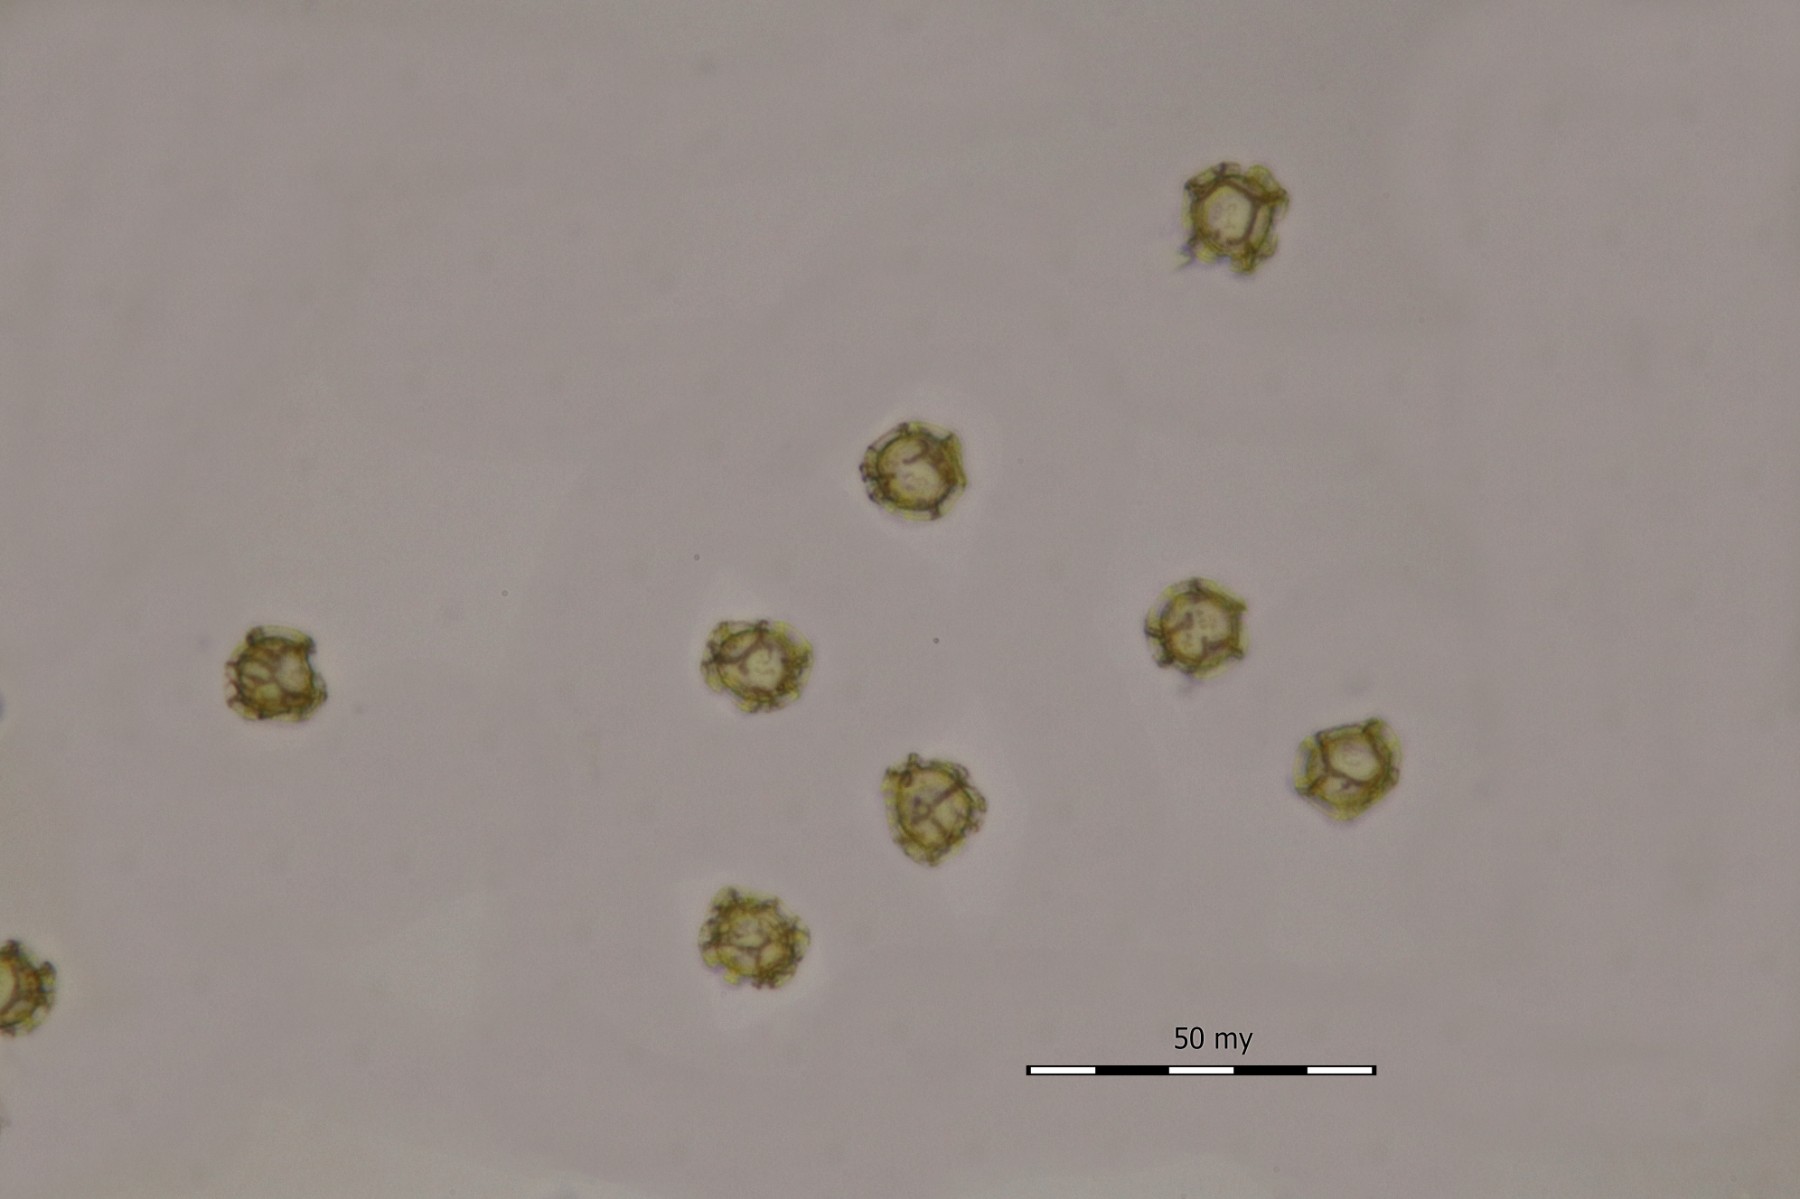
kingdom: Protozoa
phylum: Mycetozoa
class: Myxomycetes
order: Trichiales
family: Trichiaceae
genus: Trichia
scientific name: Trichia favoginea
